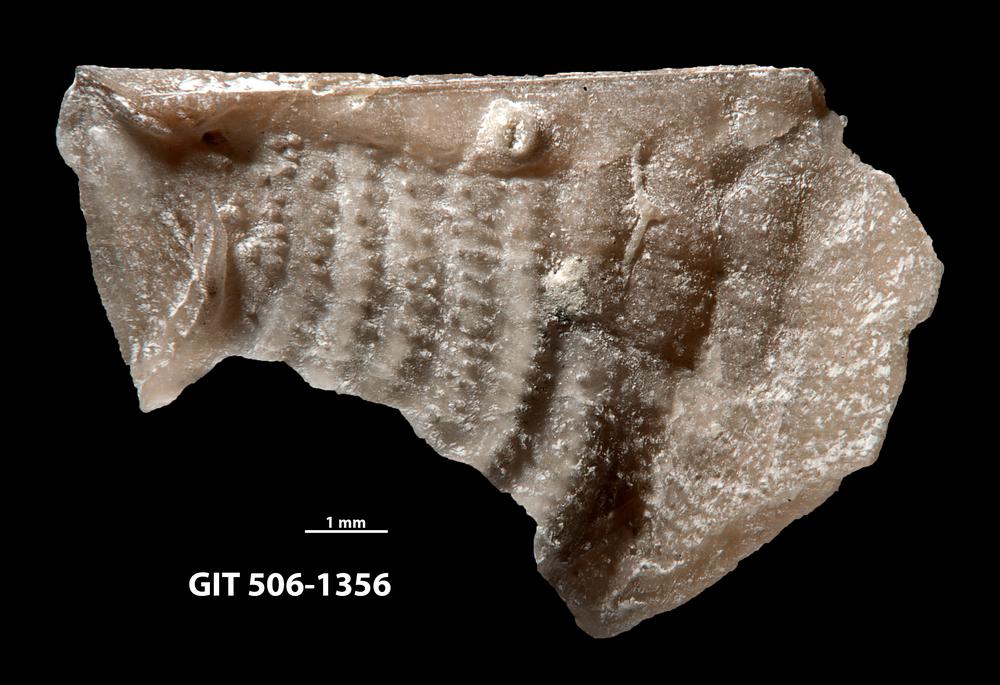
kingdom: Animalia
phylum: Brachiopoda
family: Strophomenidae
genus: Leptaena
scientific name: Leptaena haverfordensis
